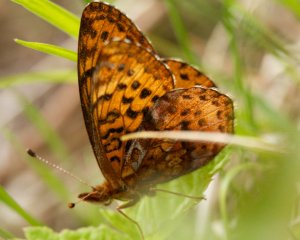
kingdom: Animalia
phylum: Arthropoda
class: Insecta
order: Lepidoptera
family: Nymphalidae
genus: Clossiana
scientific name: Clossiana toddi
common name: Meadow Fritillary
